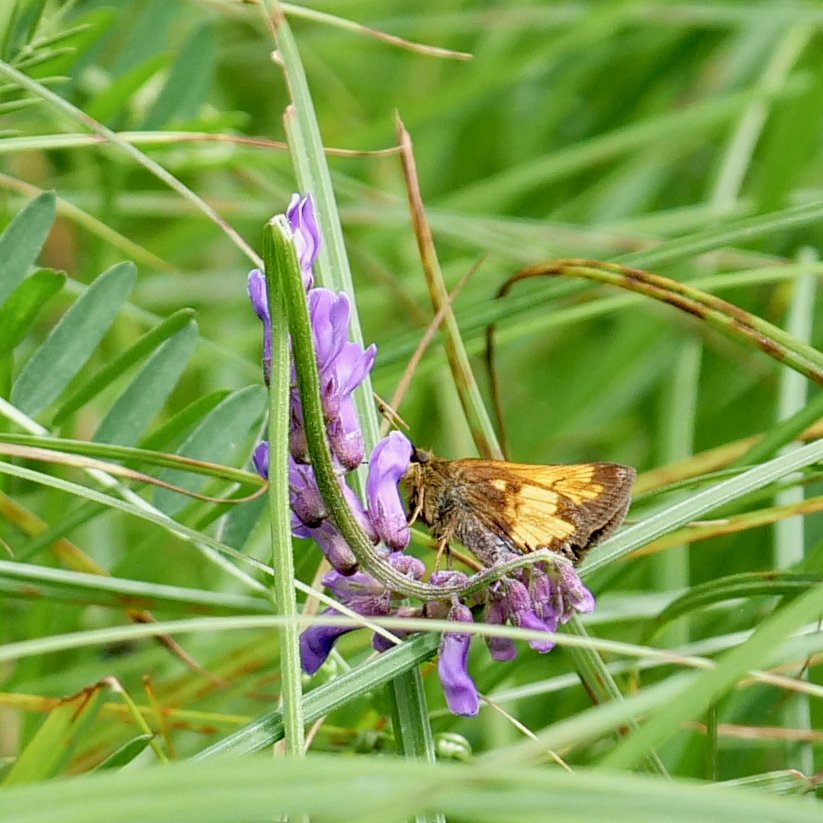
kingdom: Animalia
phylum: Arthropoda
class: Insecta
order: Lepidoptera
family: Hesperiidae
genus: Lon
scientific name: Lon hobomok
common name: Hobomok Skipper
